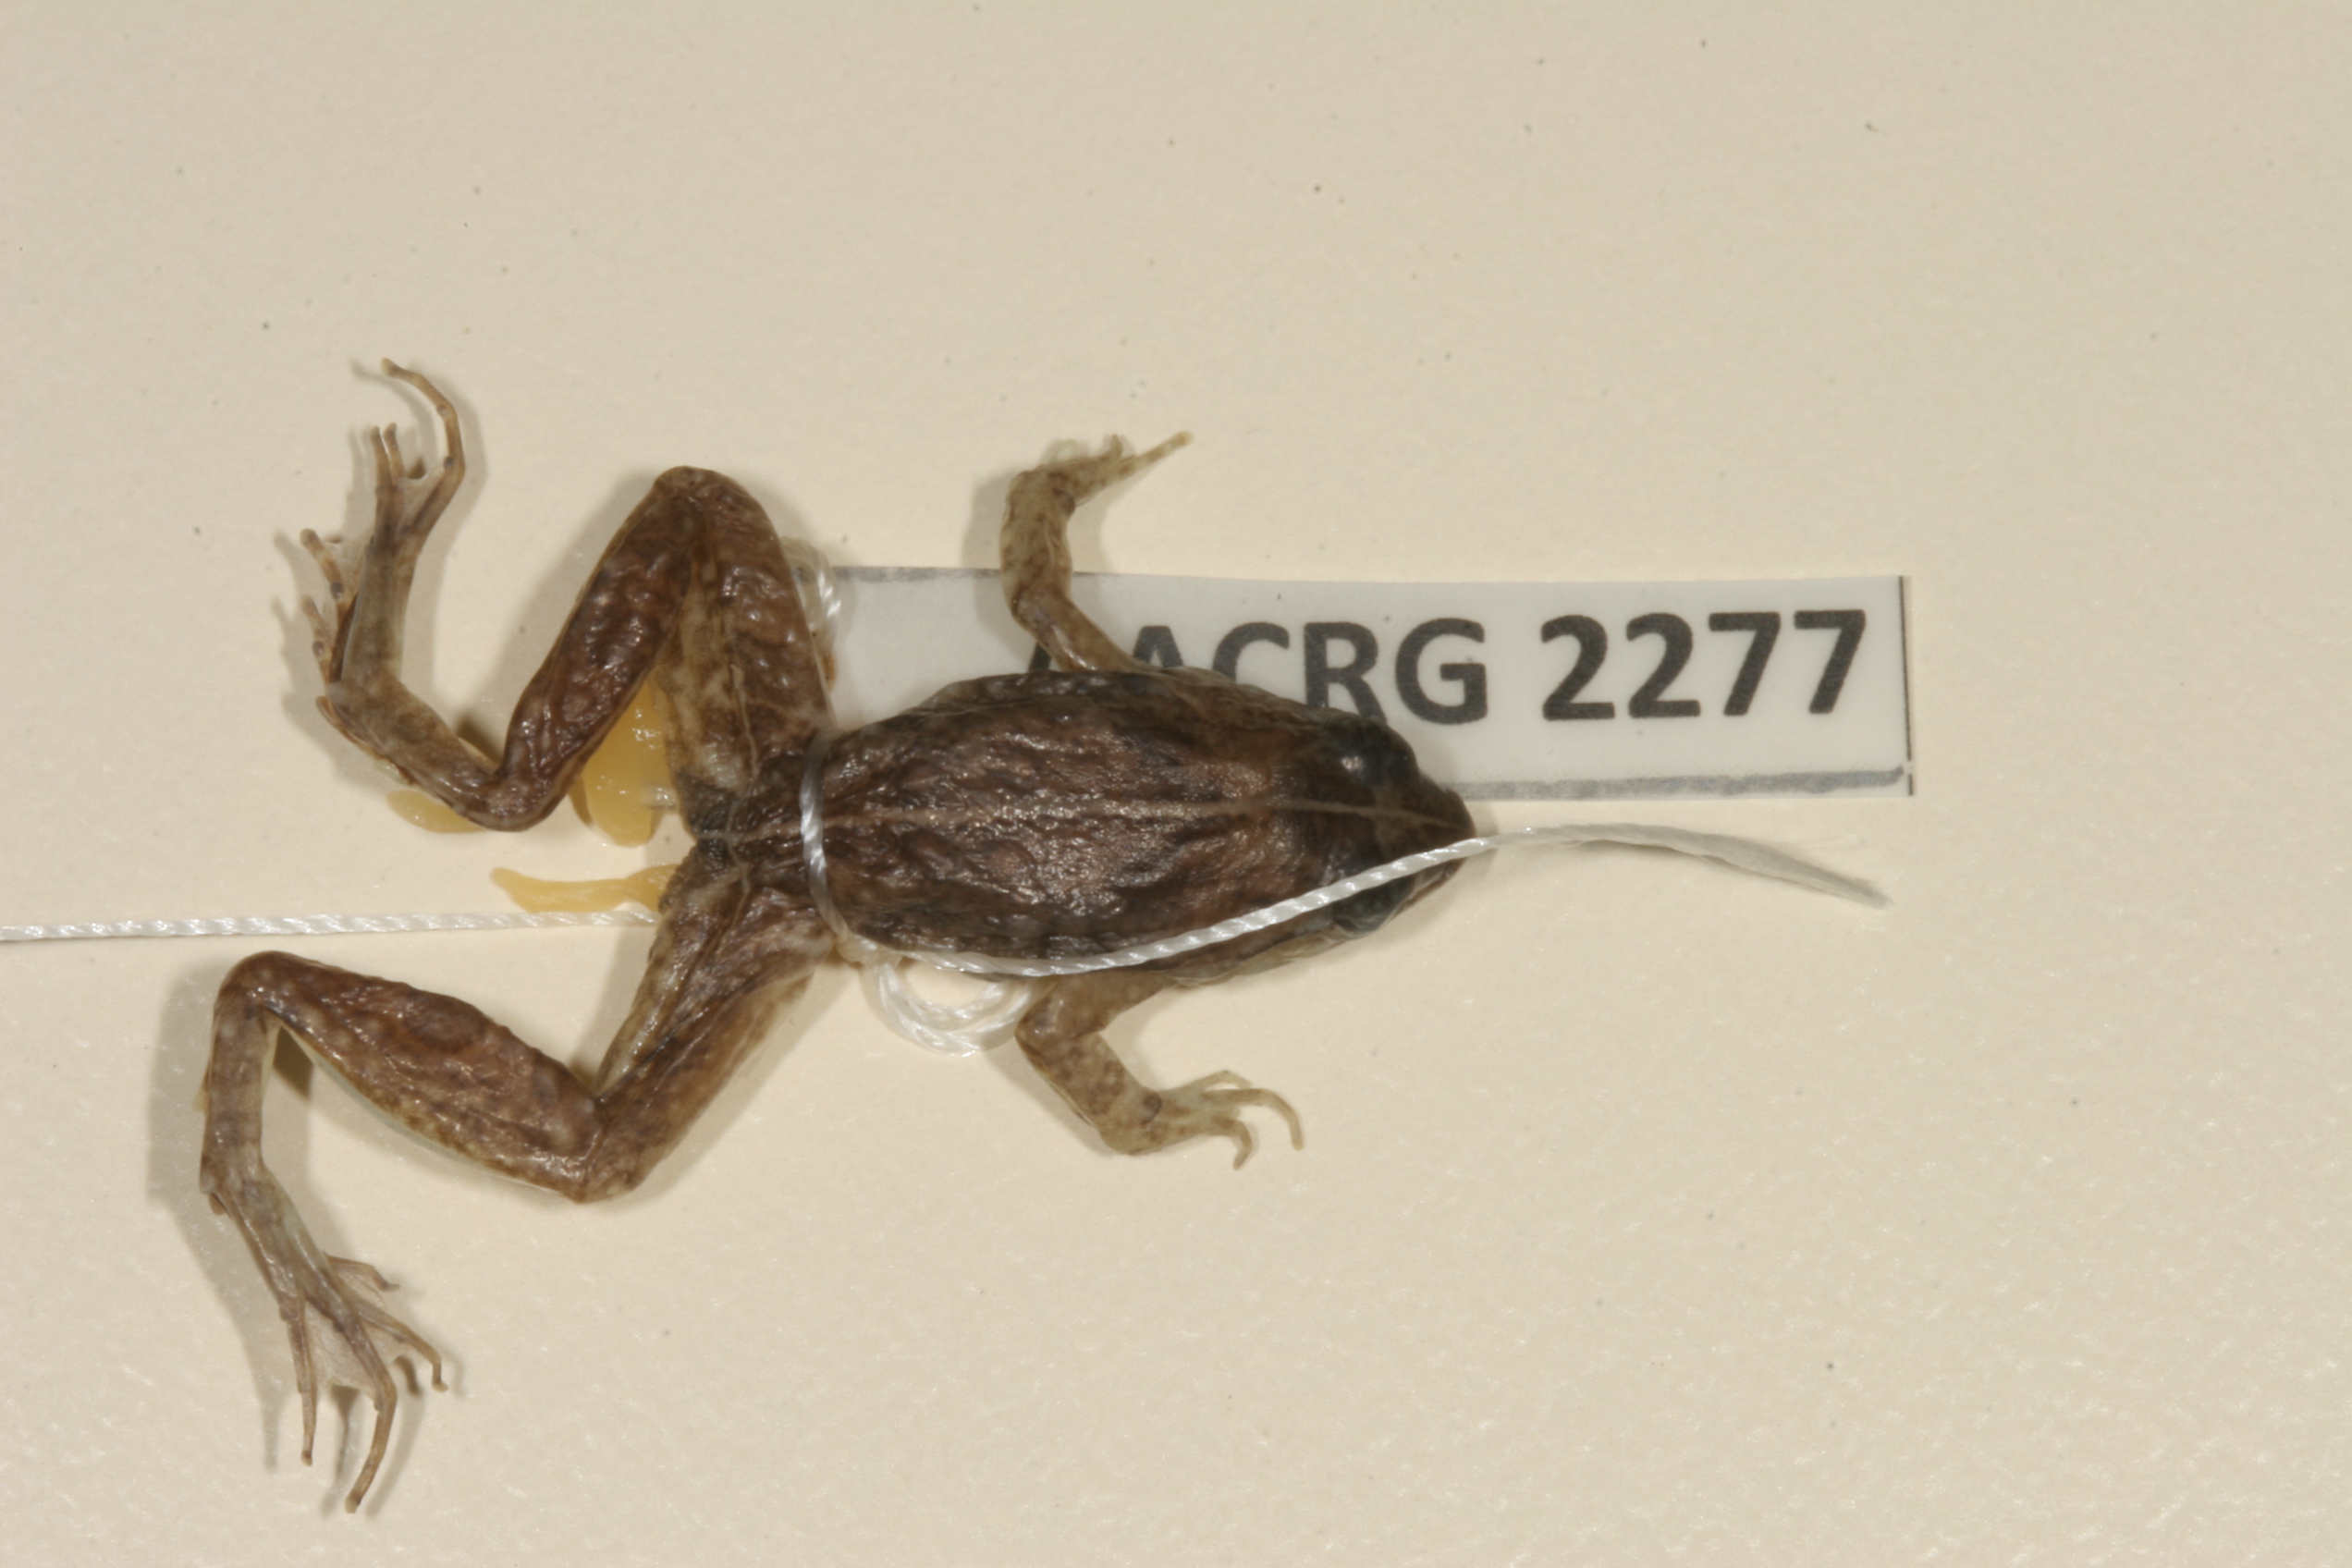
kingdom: Animalia
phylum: Chordata
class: Amphibia
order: Anura
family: Phrynobatrachidae
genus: Phrynobatrachus
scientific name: Phrynobatrachus acridoides
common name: East african puddle frog
